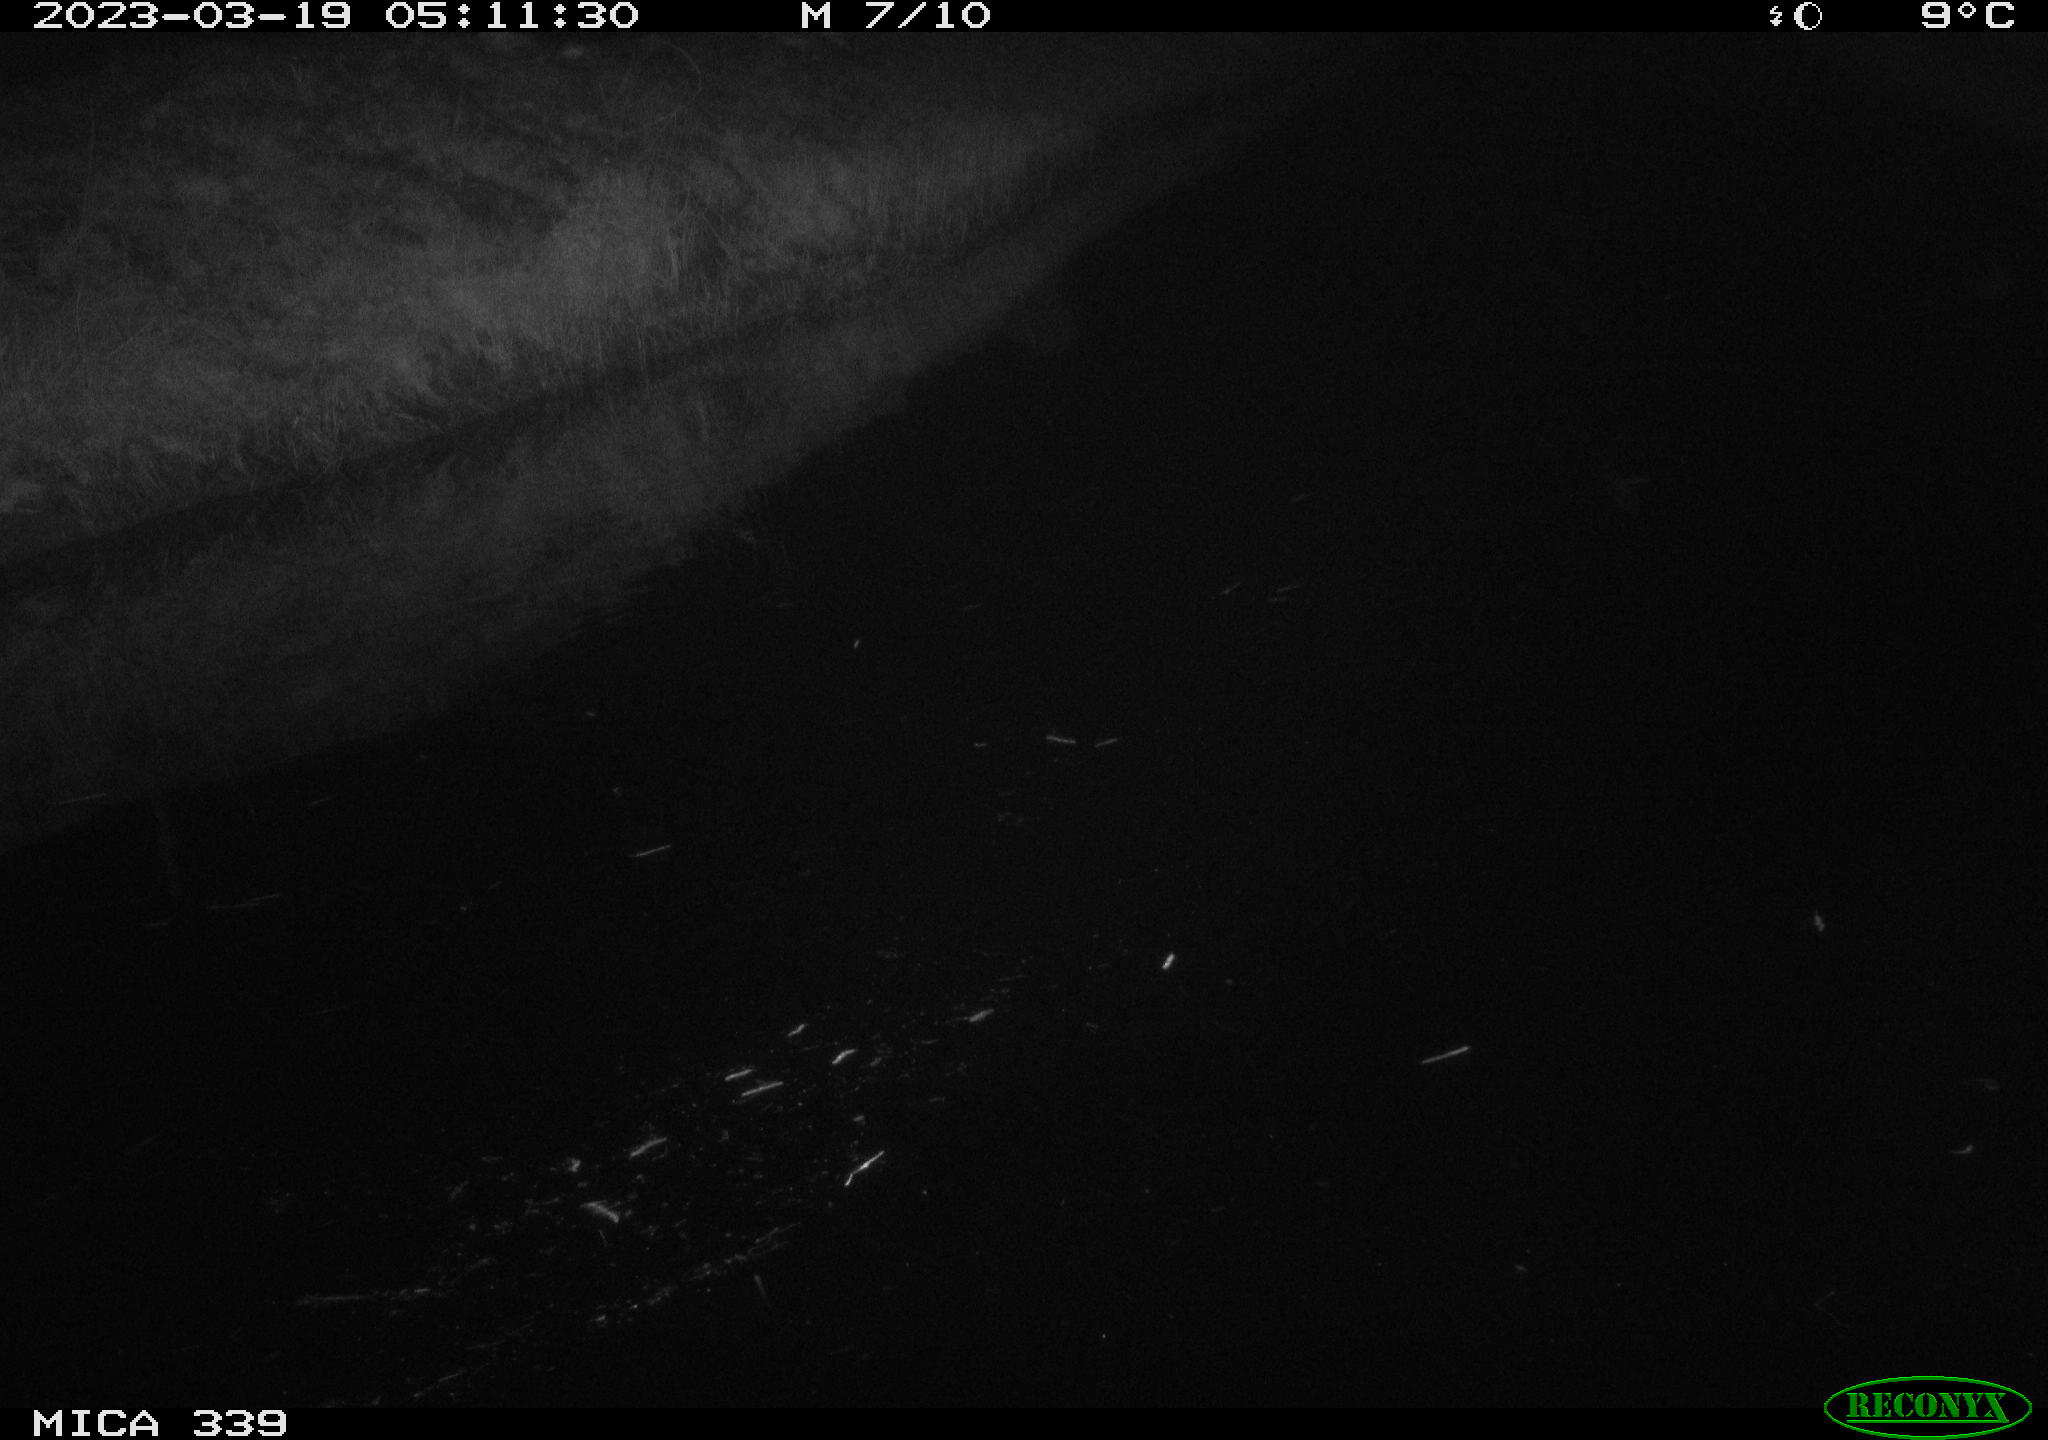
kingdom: Animalia
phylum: Chordata
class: Aves
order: Pelecaniformes
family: Ardeidae
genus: Ardea
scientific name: Ardea cinerea
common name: Grey heron
